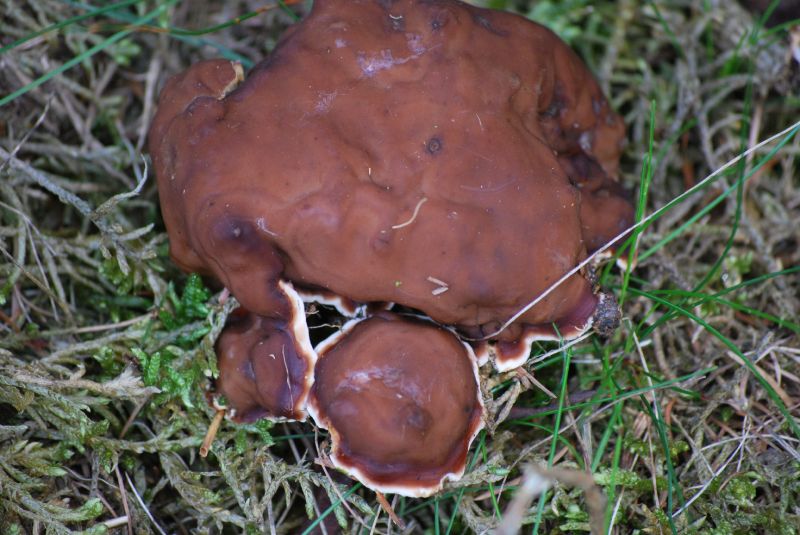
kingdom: Fungi
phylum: Ascomycota
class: Pezizomycetes
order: Pezizales
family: Rhizinaceae
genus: Rhizina
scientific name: Rhizina undulata
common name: rodmorkel
